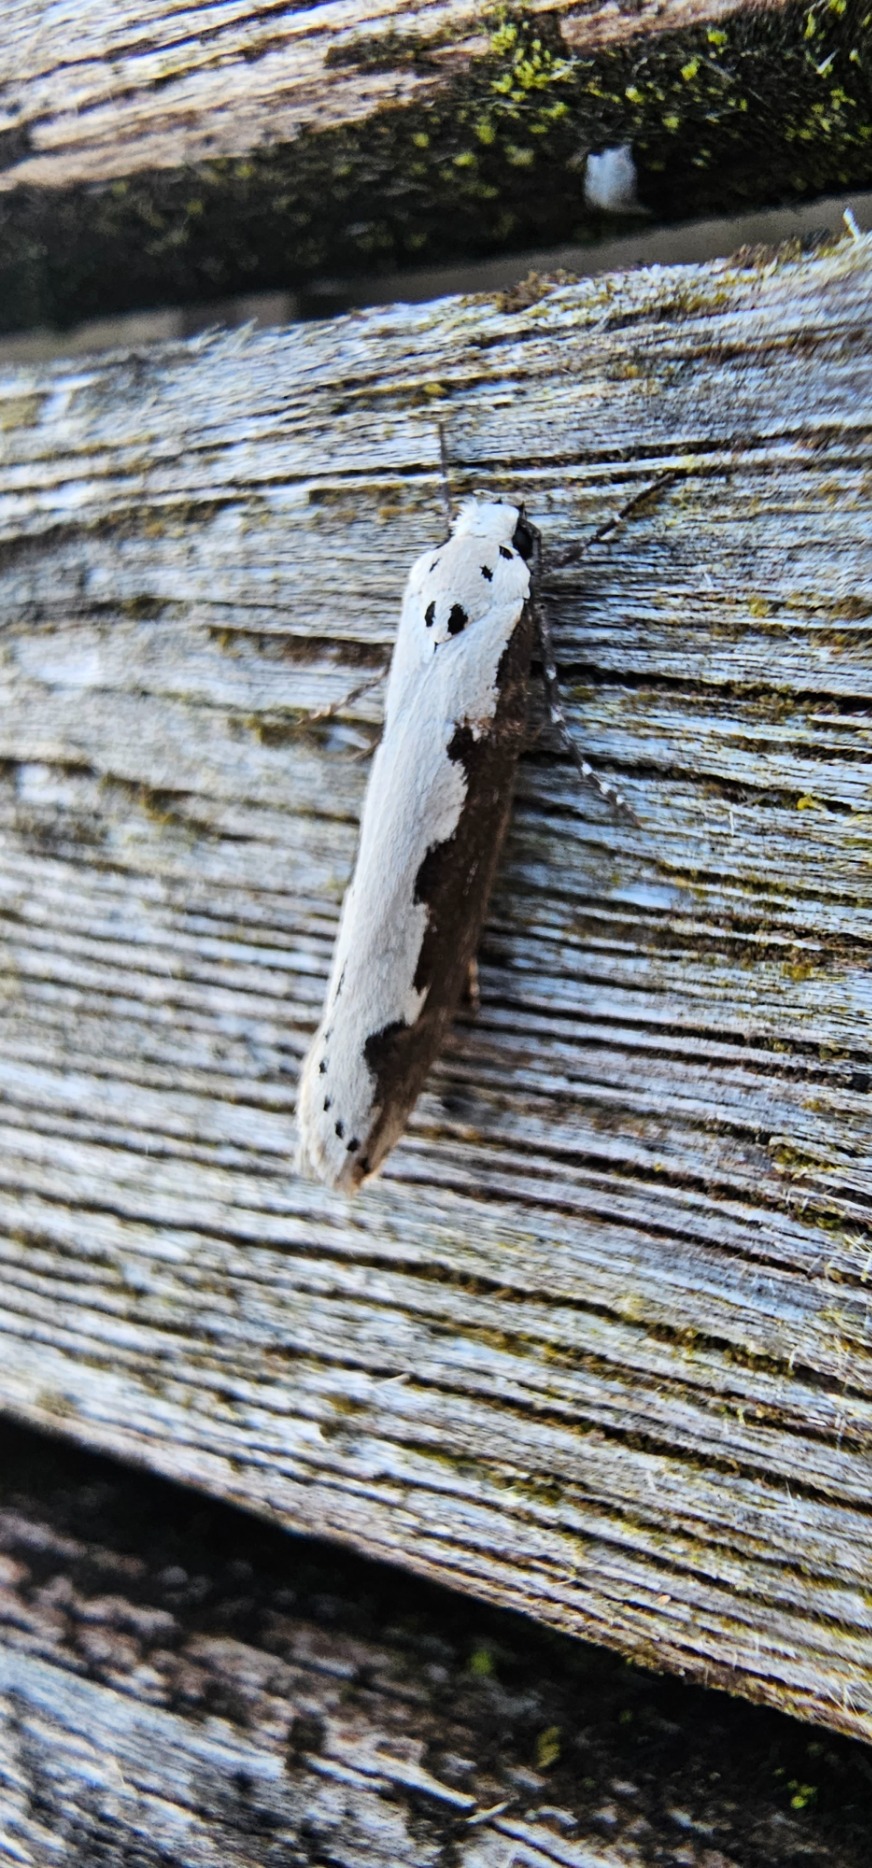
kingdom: Animalia
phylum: Arthropoda
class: Insecta
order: Lepidoptera
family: Ethmiidae
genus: Ethmia
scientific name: Ethmia bipunctella
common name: Slangehovedmøl
